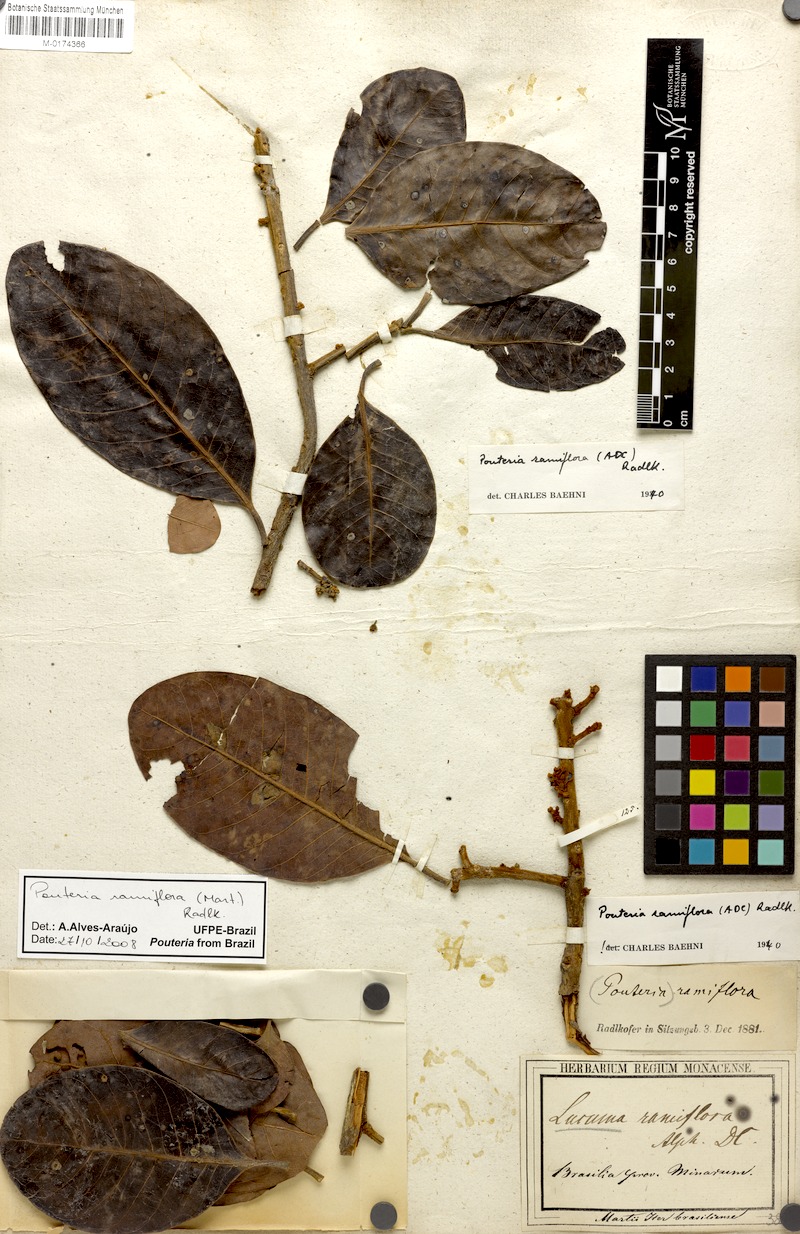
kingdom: Plantae
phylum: Tracheophyta
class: Magnoliopsida
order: Ericales
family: Sapotaceae
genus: Pouteria
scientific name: Pouteria ramiflora
